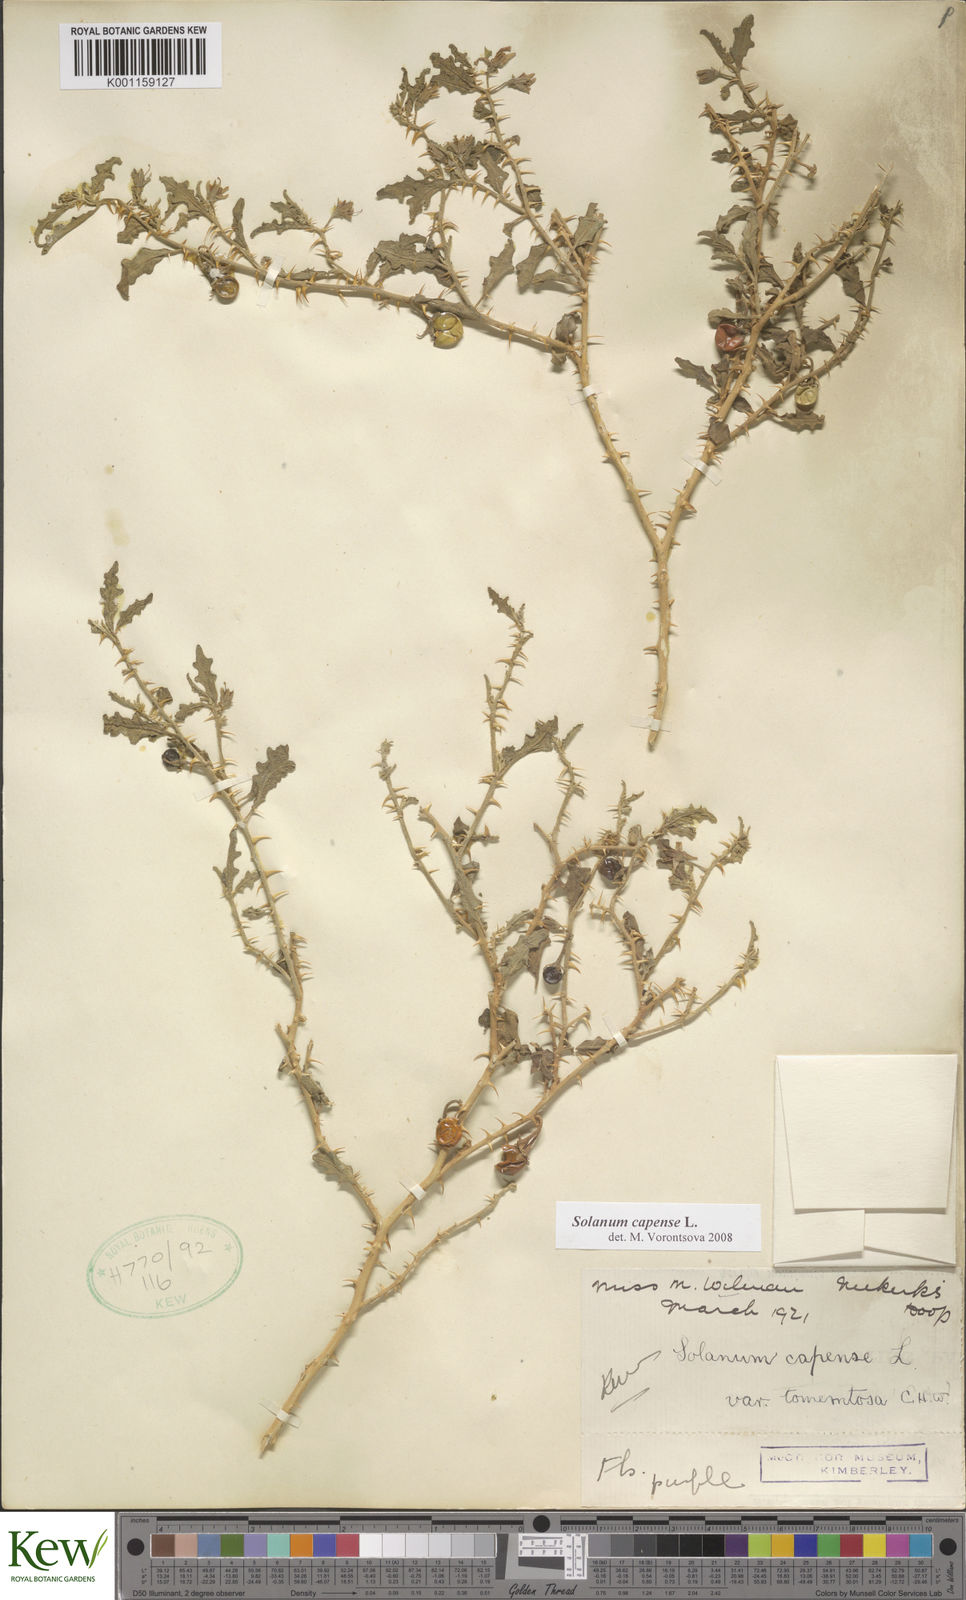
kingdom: Plantae
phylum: Tracheophyta
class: Magnoliopsida
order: Solanales
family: Solanaceae
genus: Solanum
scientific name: Solanum capense
